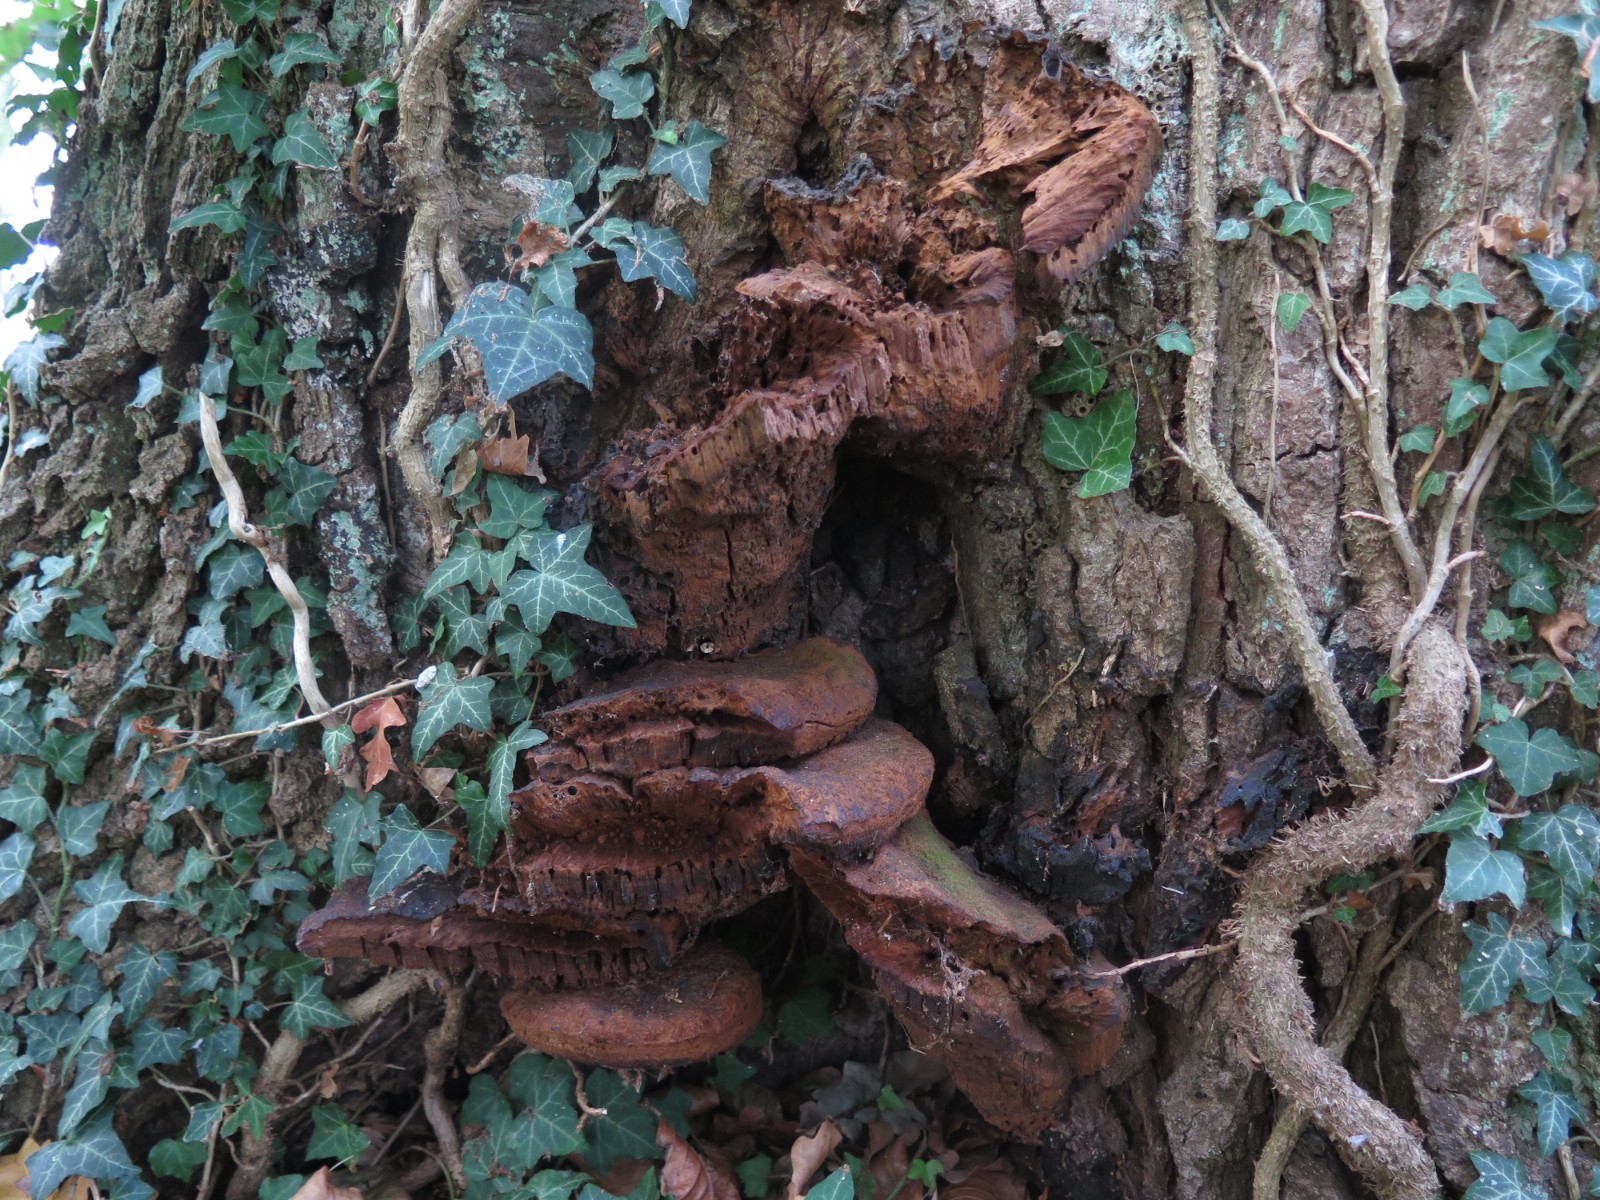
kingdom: Fungi
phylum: Basidiomycota
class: Agaricomycetes
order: Hymenochaetales
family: Hymenochaetaceae
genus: Pseudoinonotus
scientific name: Pseudoinonotus dryadeus
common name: ege-spejlporesvamp
